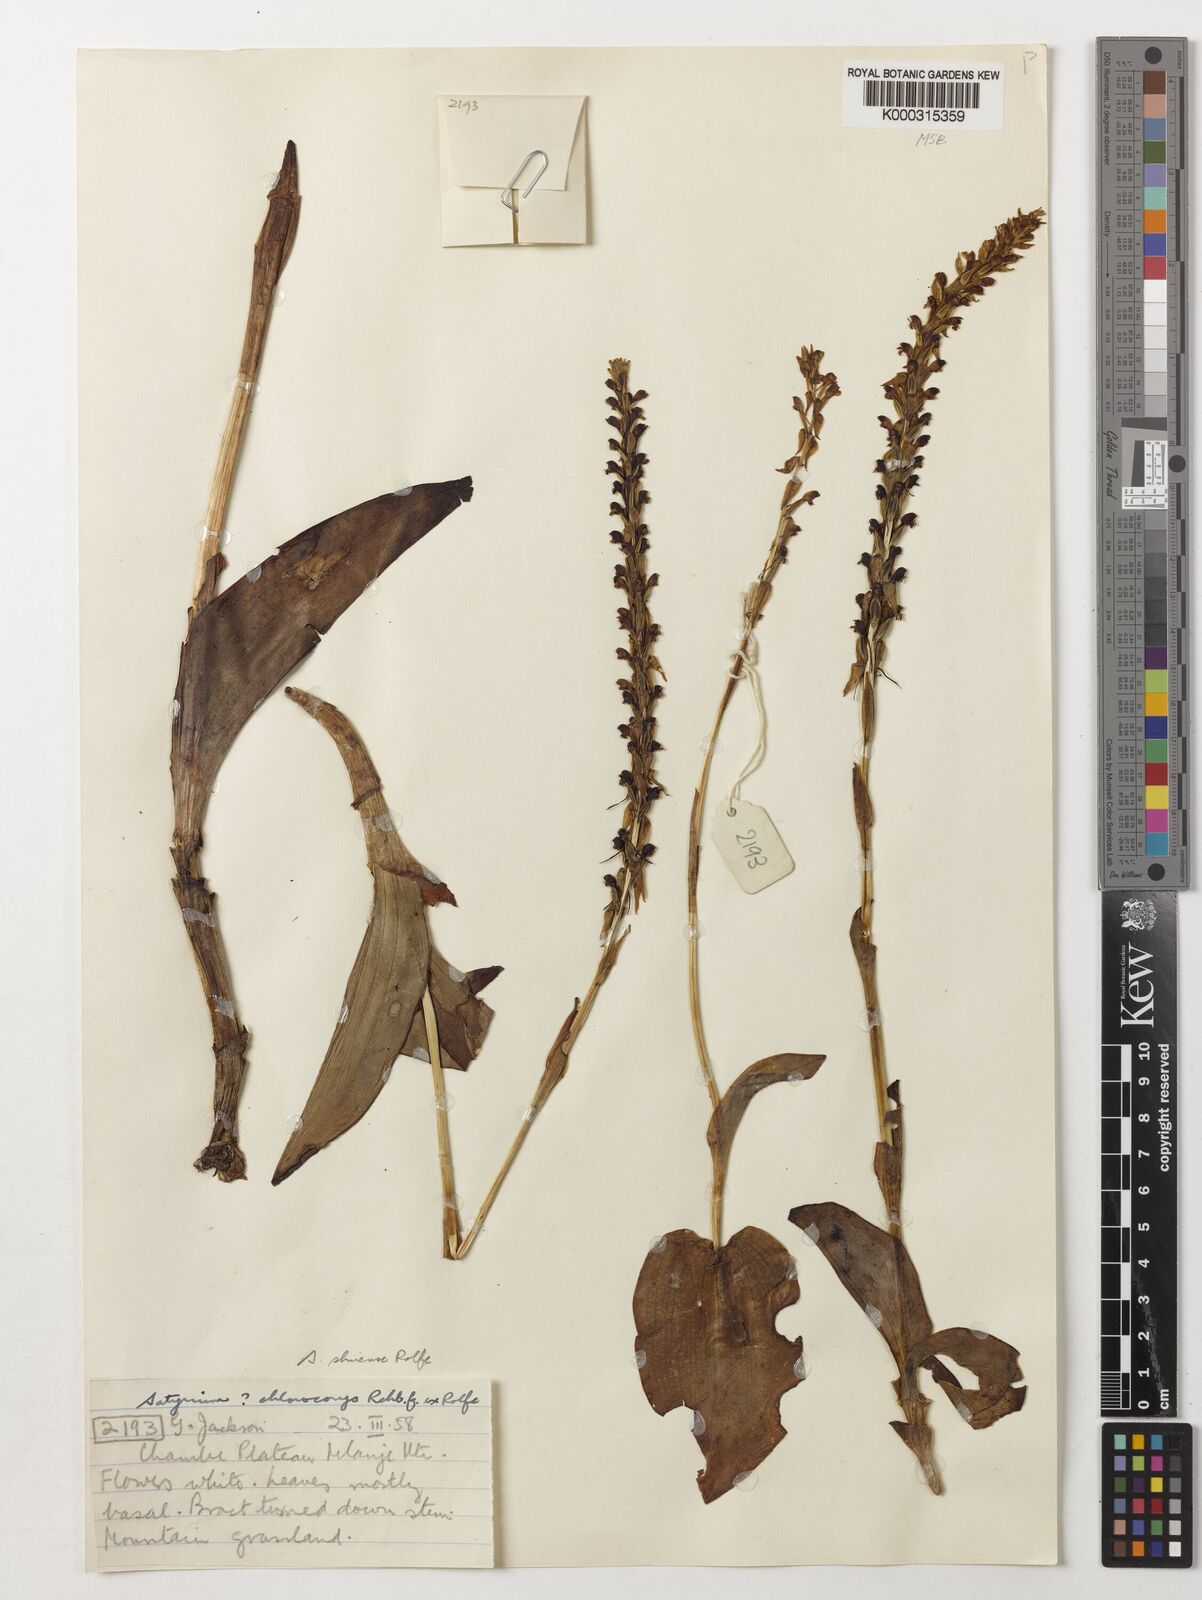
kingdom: Plantae
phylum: Tracheophyta
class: Liliopsida
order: Asparagales
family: Orchidaceae
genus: Satyrium
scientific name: Satyrium shirense
